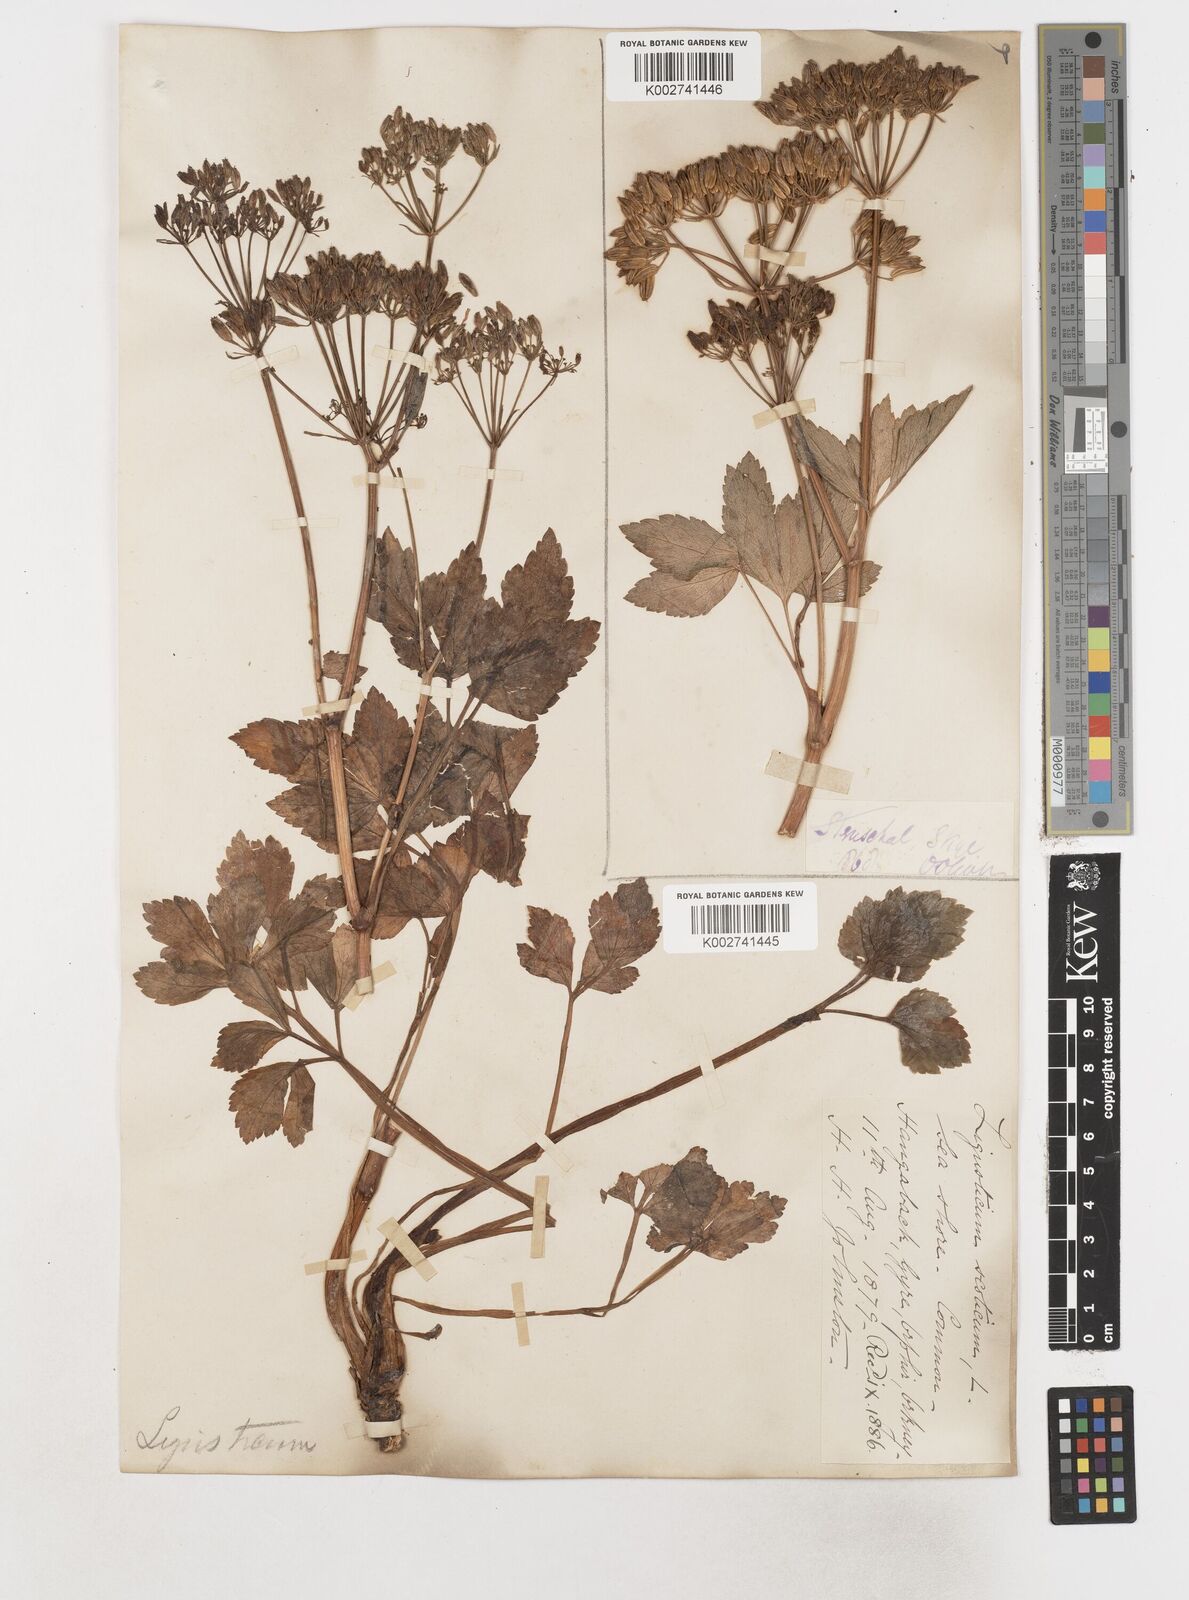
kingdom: Plantae
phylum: Tracheophyta
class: Magnoliopsida
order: Apiales
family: Apiaceae
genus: Ligusticum
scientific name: Ligusticum scothicum
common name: Beach lovage
